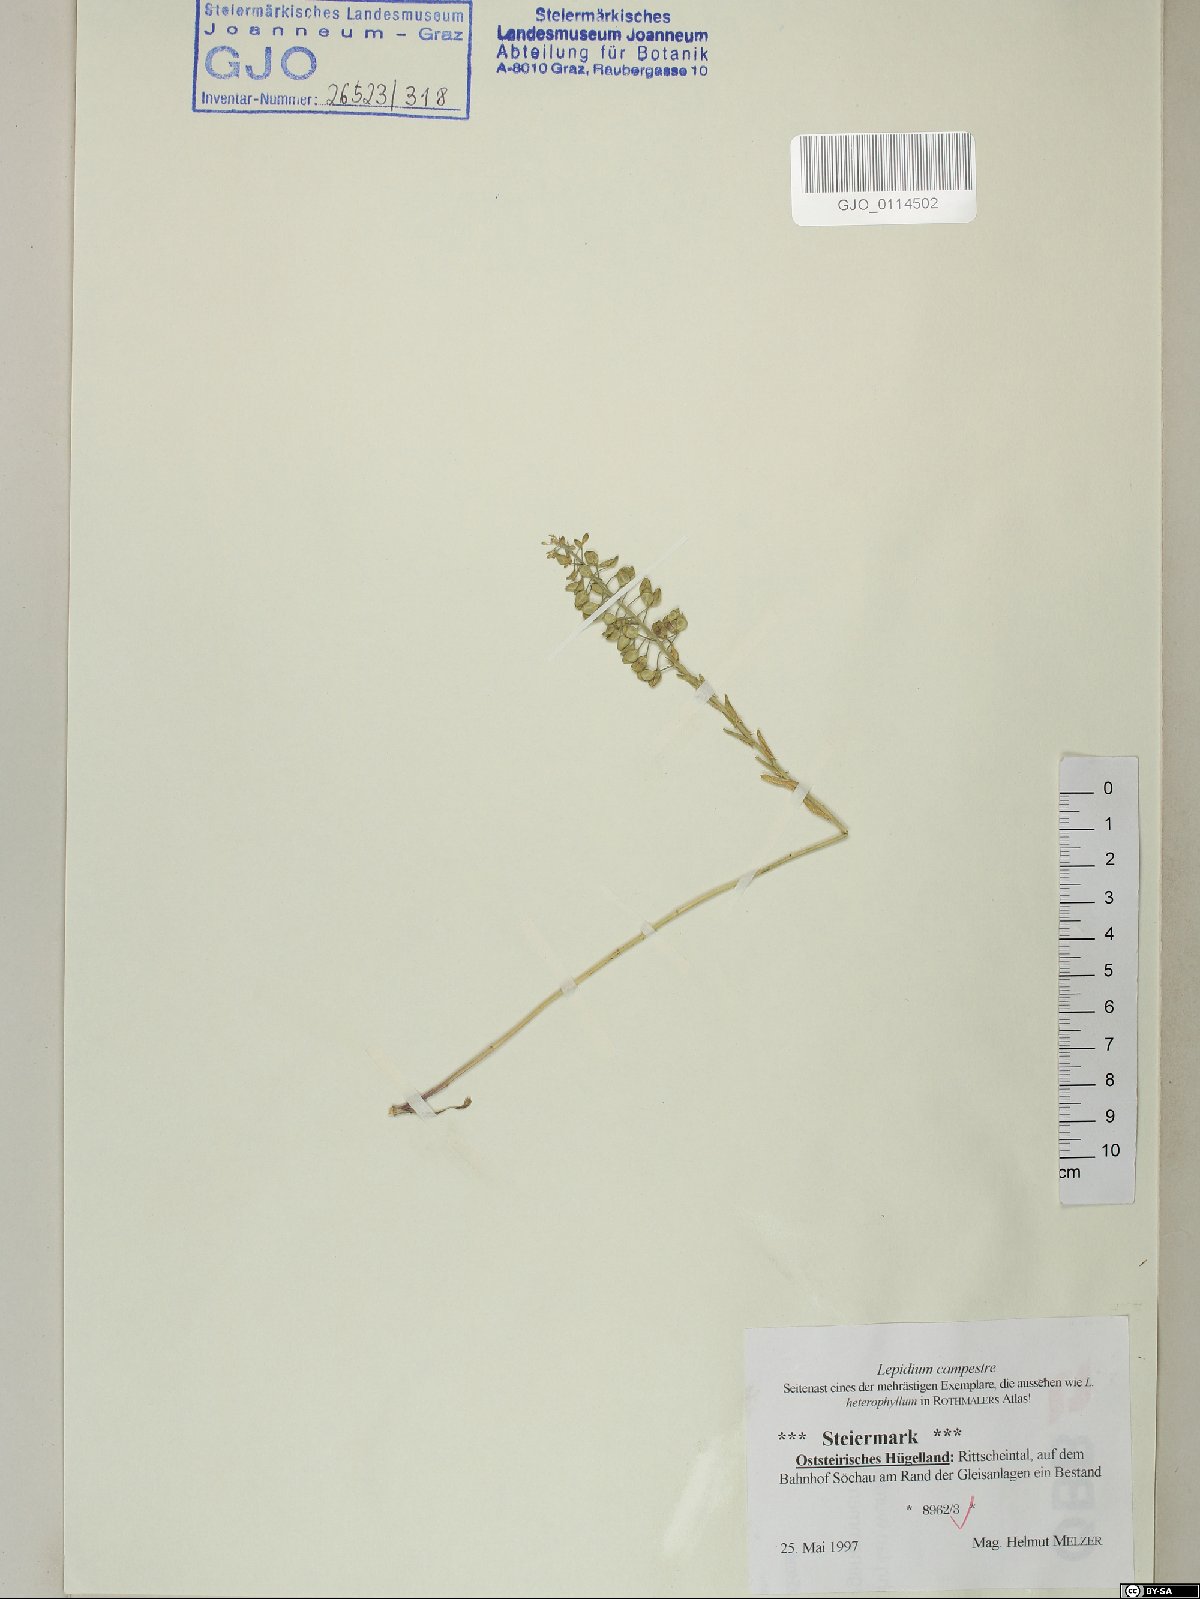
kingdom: Plantae
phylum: Tracheophyta
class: Magnoliopsida
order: Brassicales
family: Brassicaceae
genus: Lepidium
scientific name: Lepidium campestre
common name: Field pepperwort
